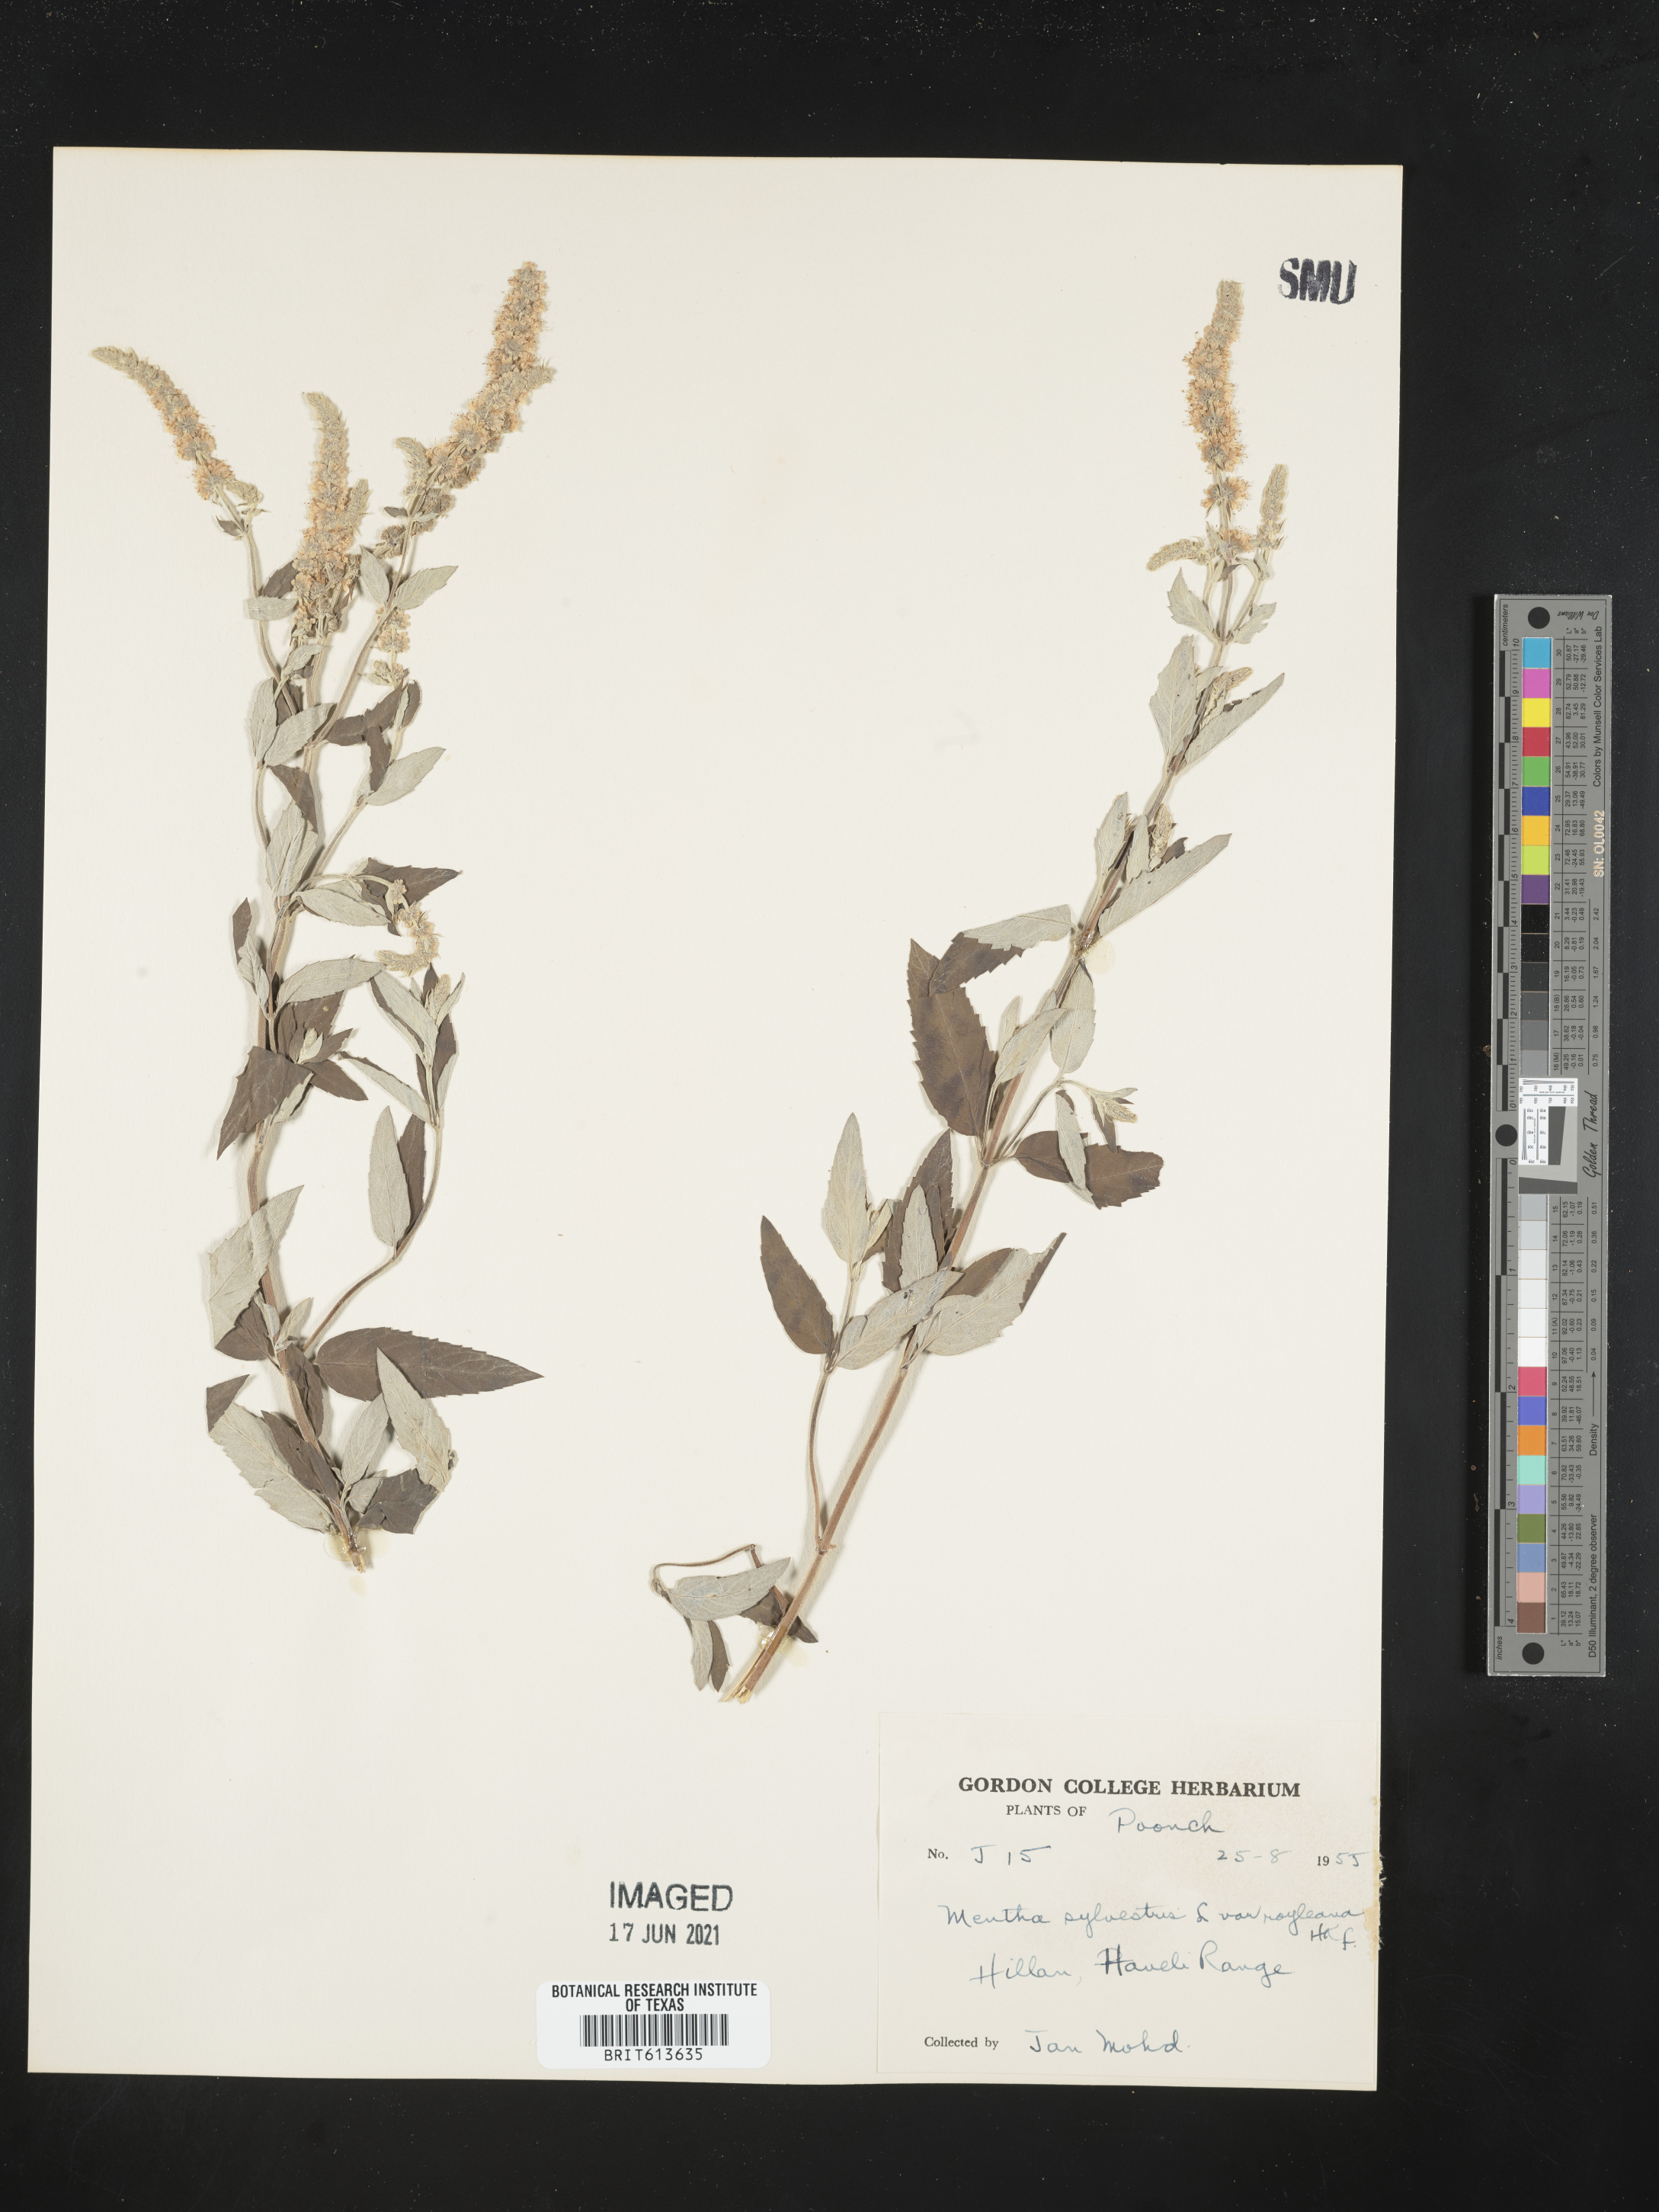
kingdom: Plantae
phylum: Tracheophyta
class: Magnoliopsida
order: Lamiales
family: Lamiaceae
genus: Mentha
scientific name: Mentha longifolia
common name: Horse mint
